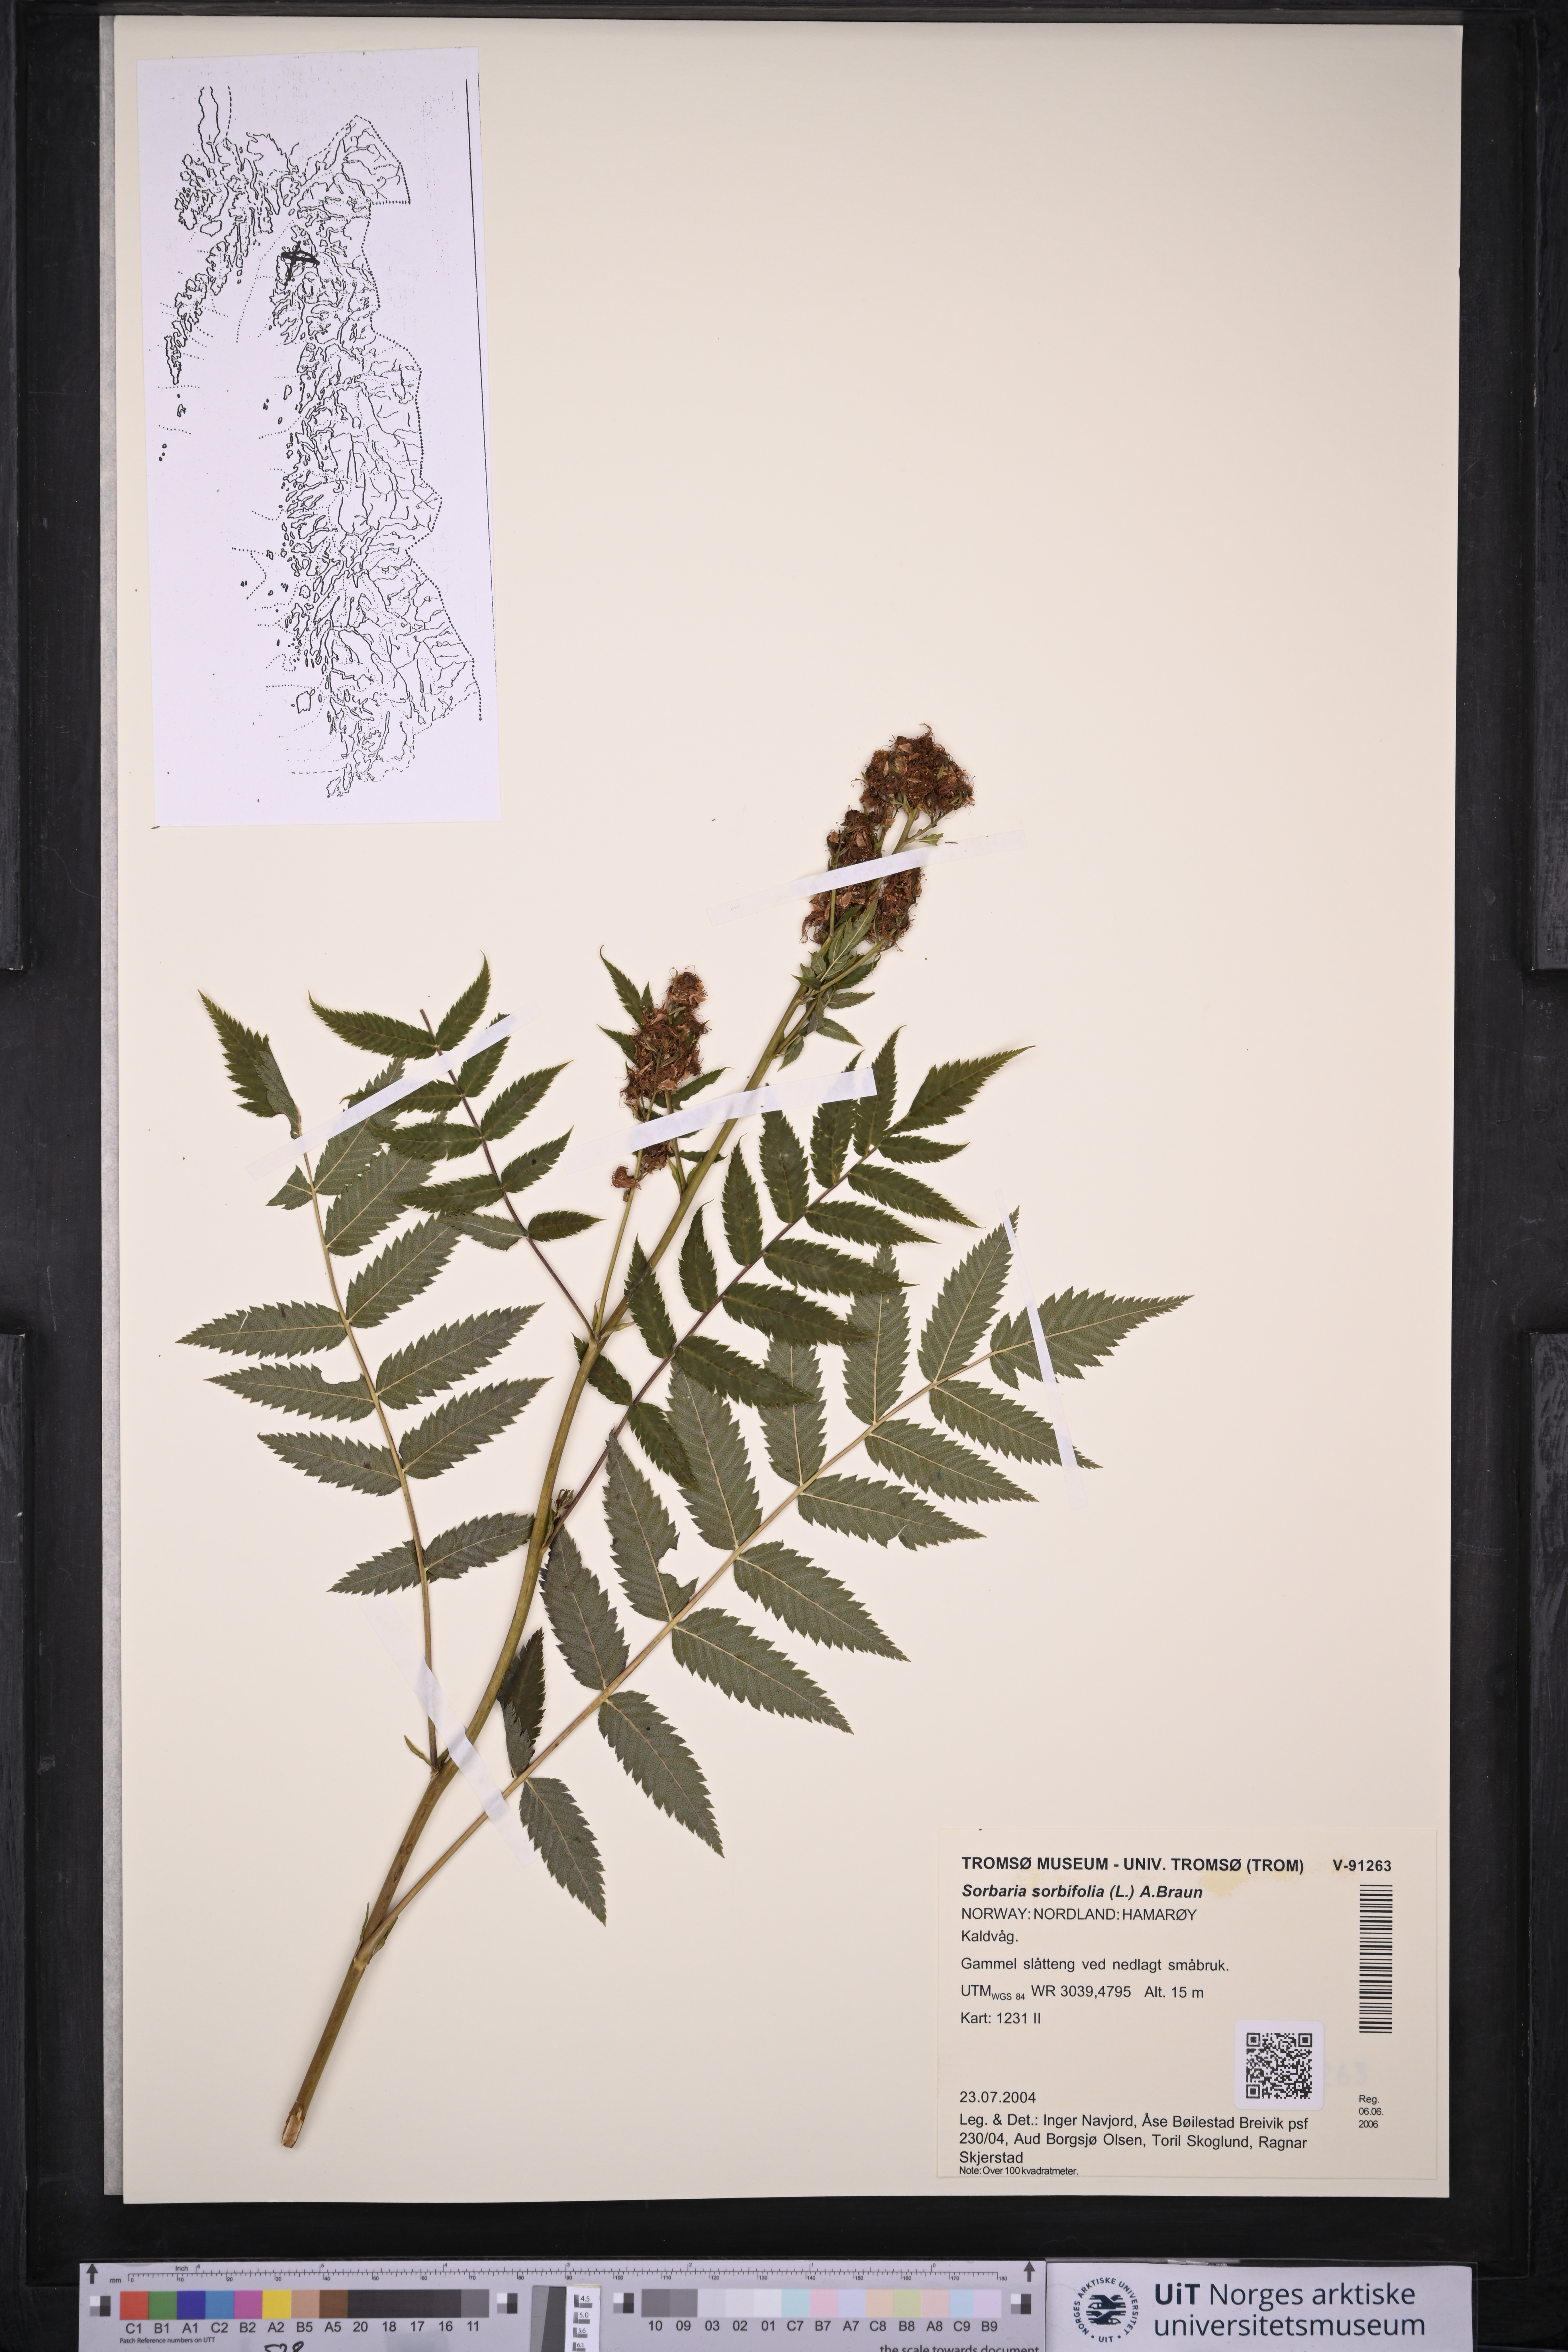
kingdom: Plantae
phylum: Tracheophyta
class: Magnoliopsida
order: Rosales
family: Rosaceae
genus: Sorbaria
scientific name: Sorbaria sorbifolia
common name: False spiraea
